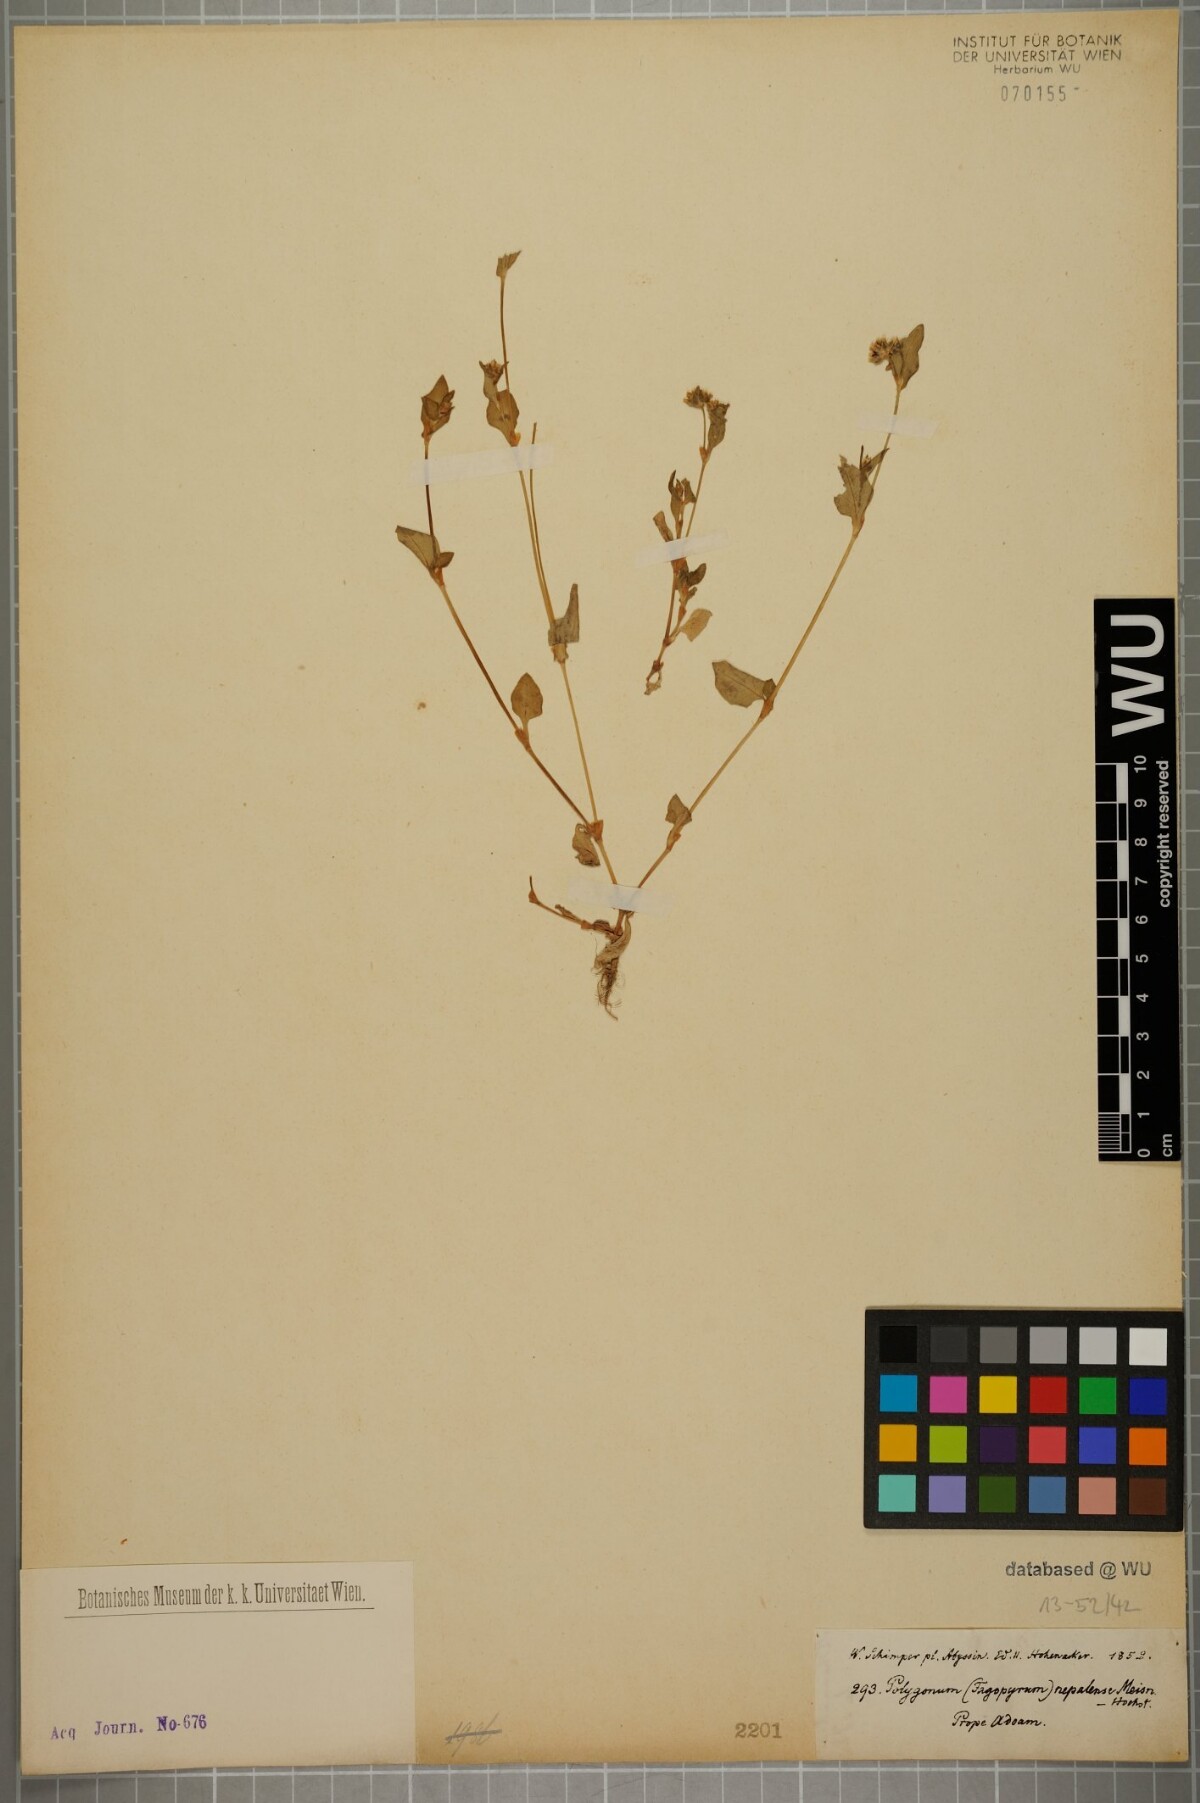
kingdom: Plantae
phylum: Tracheophyta
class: Magnoliopsida
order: Caryophyllales
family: Polygonaceae
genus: Persicaria
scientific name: Persicaria nepalensis
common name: Nepal persicaria
